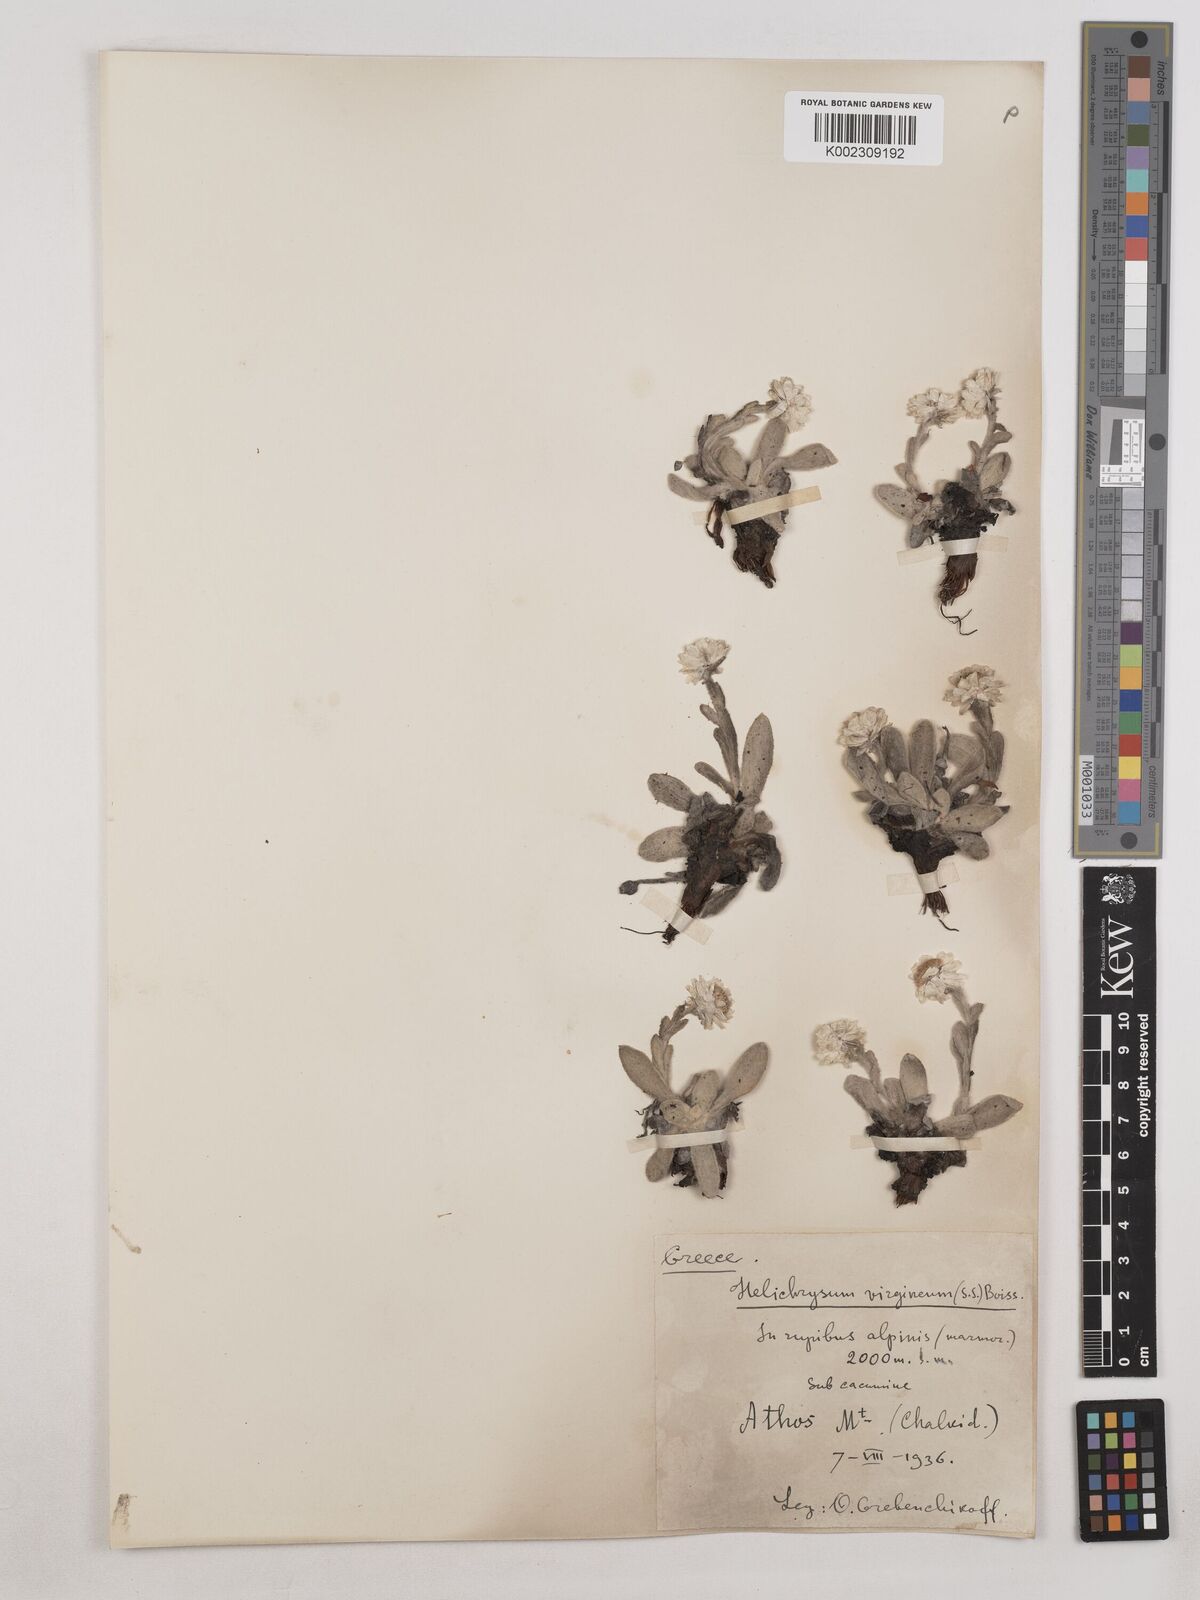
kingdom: Plantae
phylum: Tracheophyta
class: Magnoliopsida
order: Asterales
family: Asteraceae
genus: Helichrysum
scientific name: Helichrysum sibthorpii
